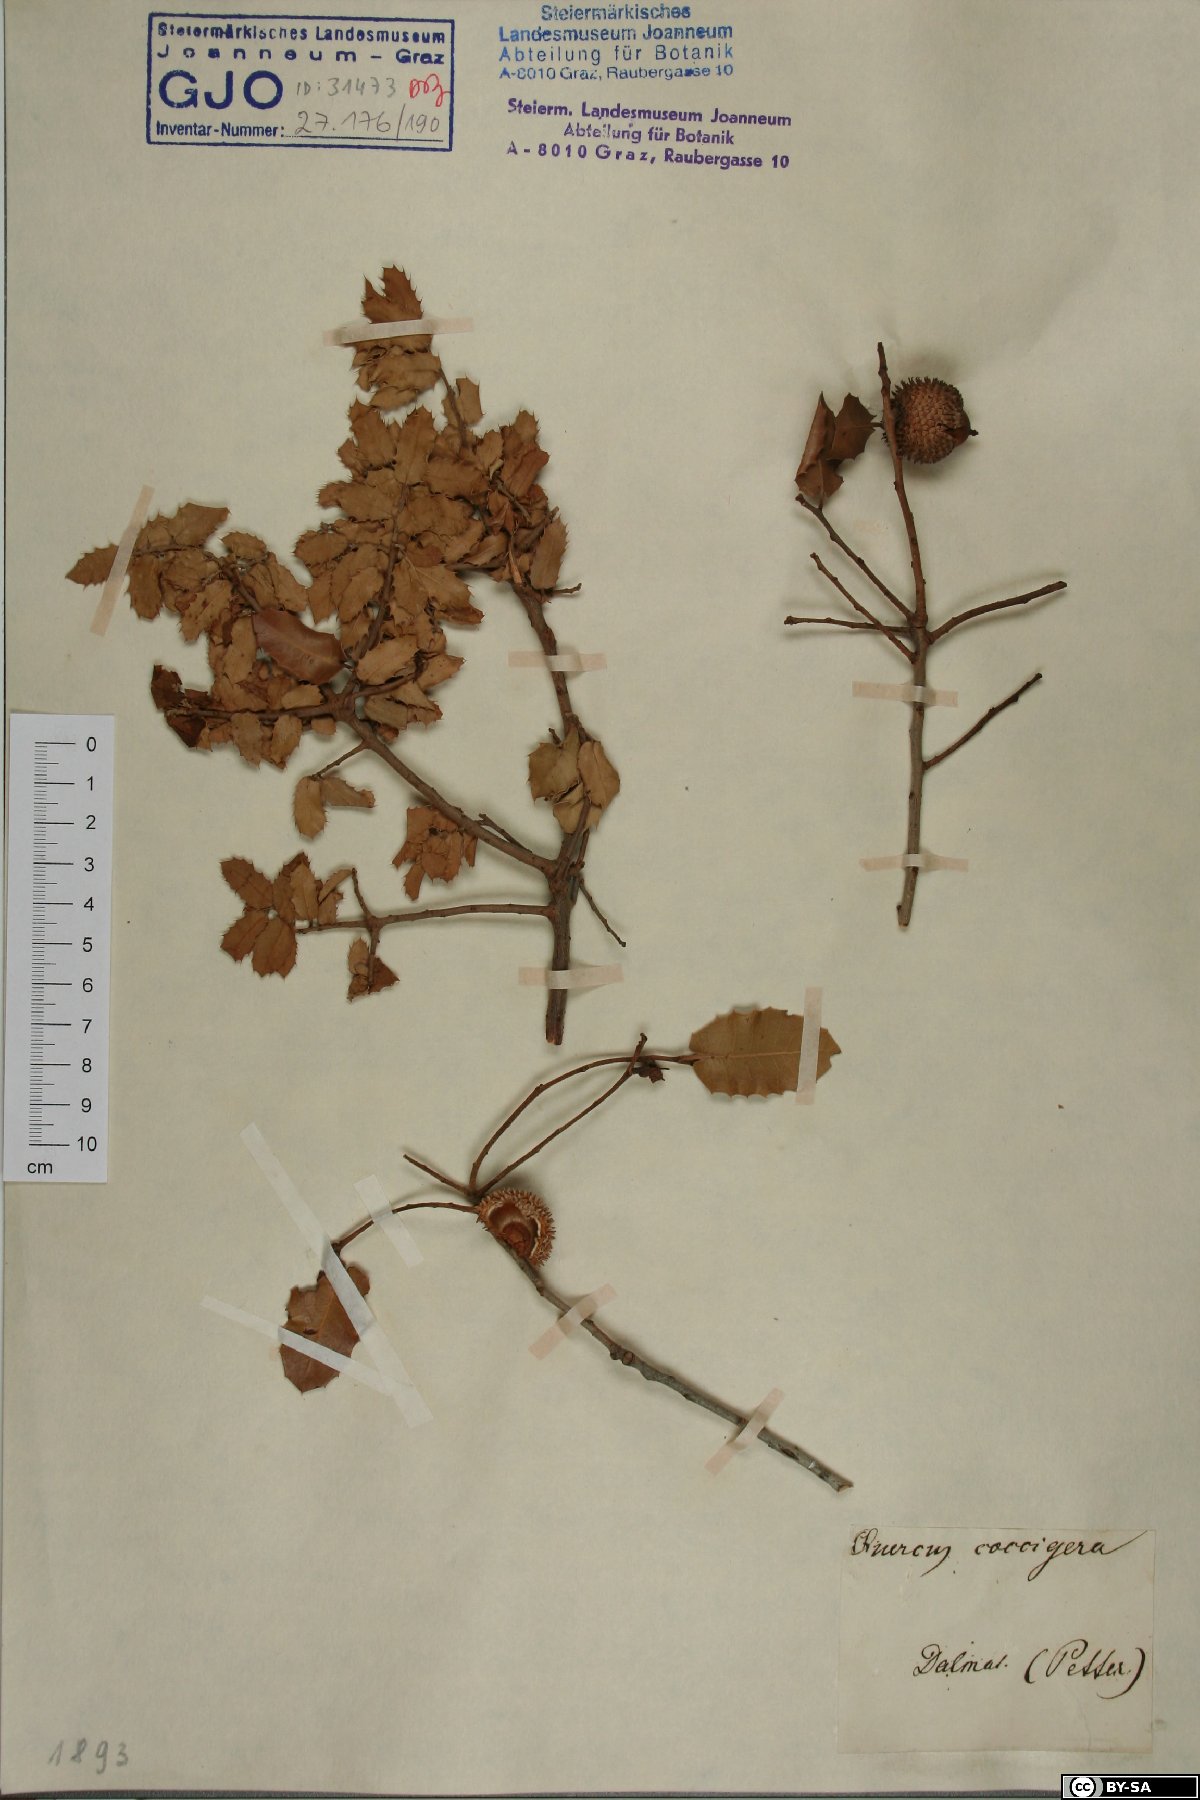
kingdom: Plantae
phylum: Tracheophyta
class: Magnoliopsida
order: Fagales
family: Fagaceae
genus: Quercus
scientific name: Quercus coccifera
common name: Kermes oak
